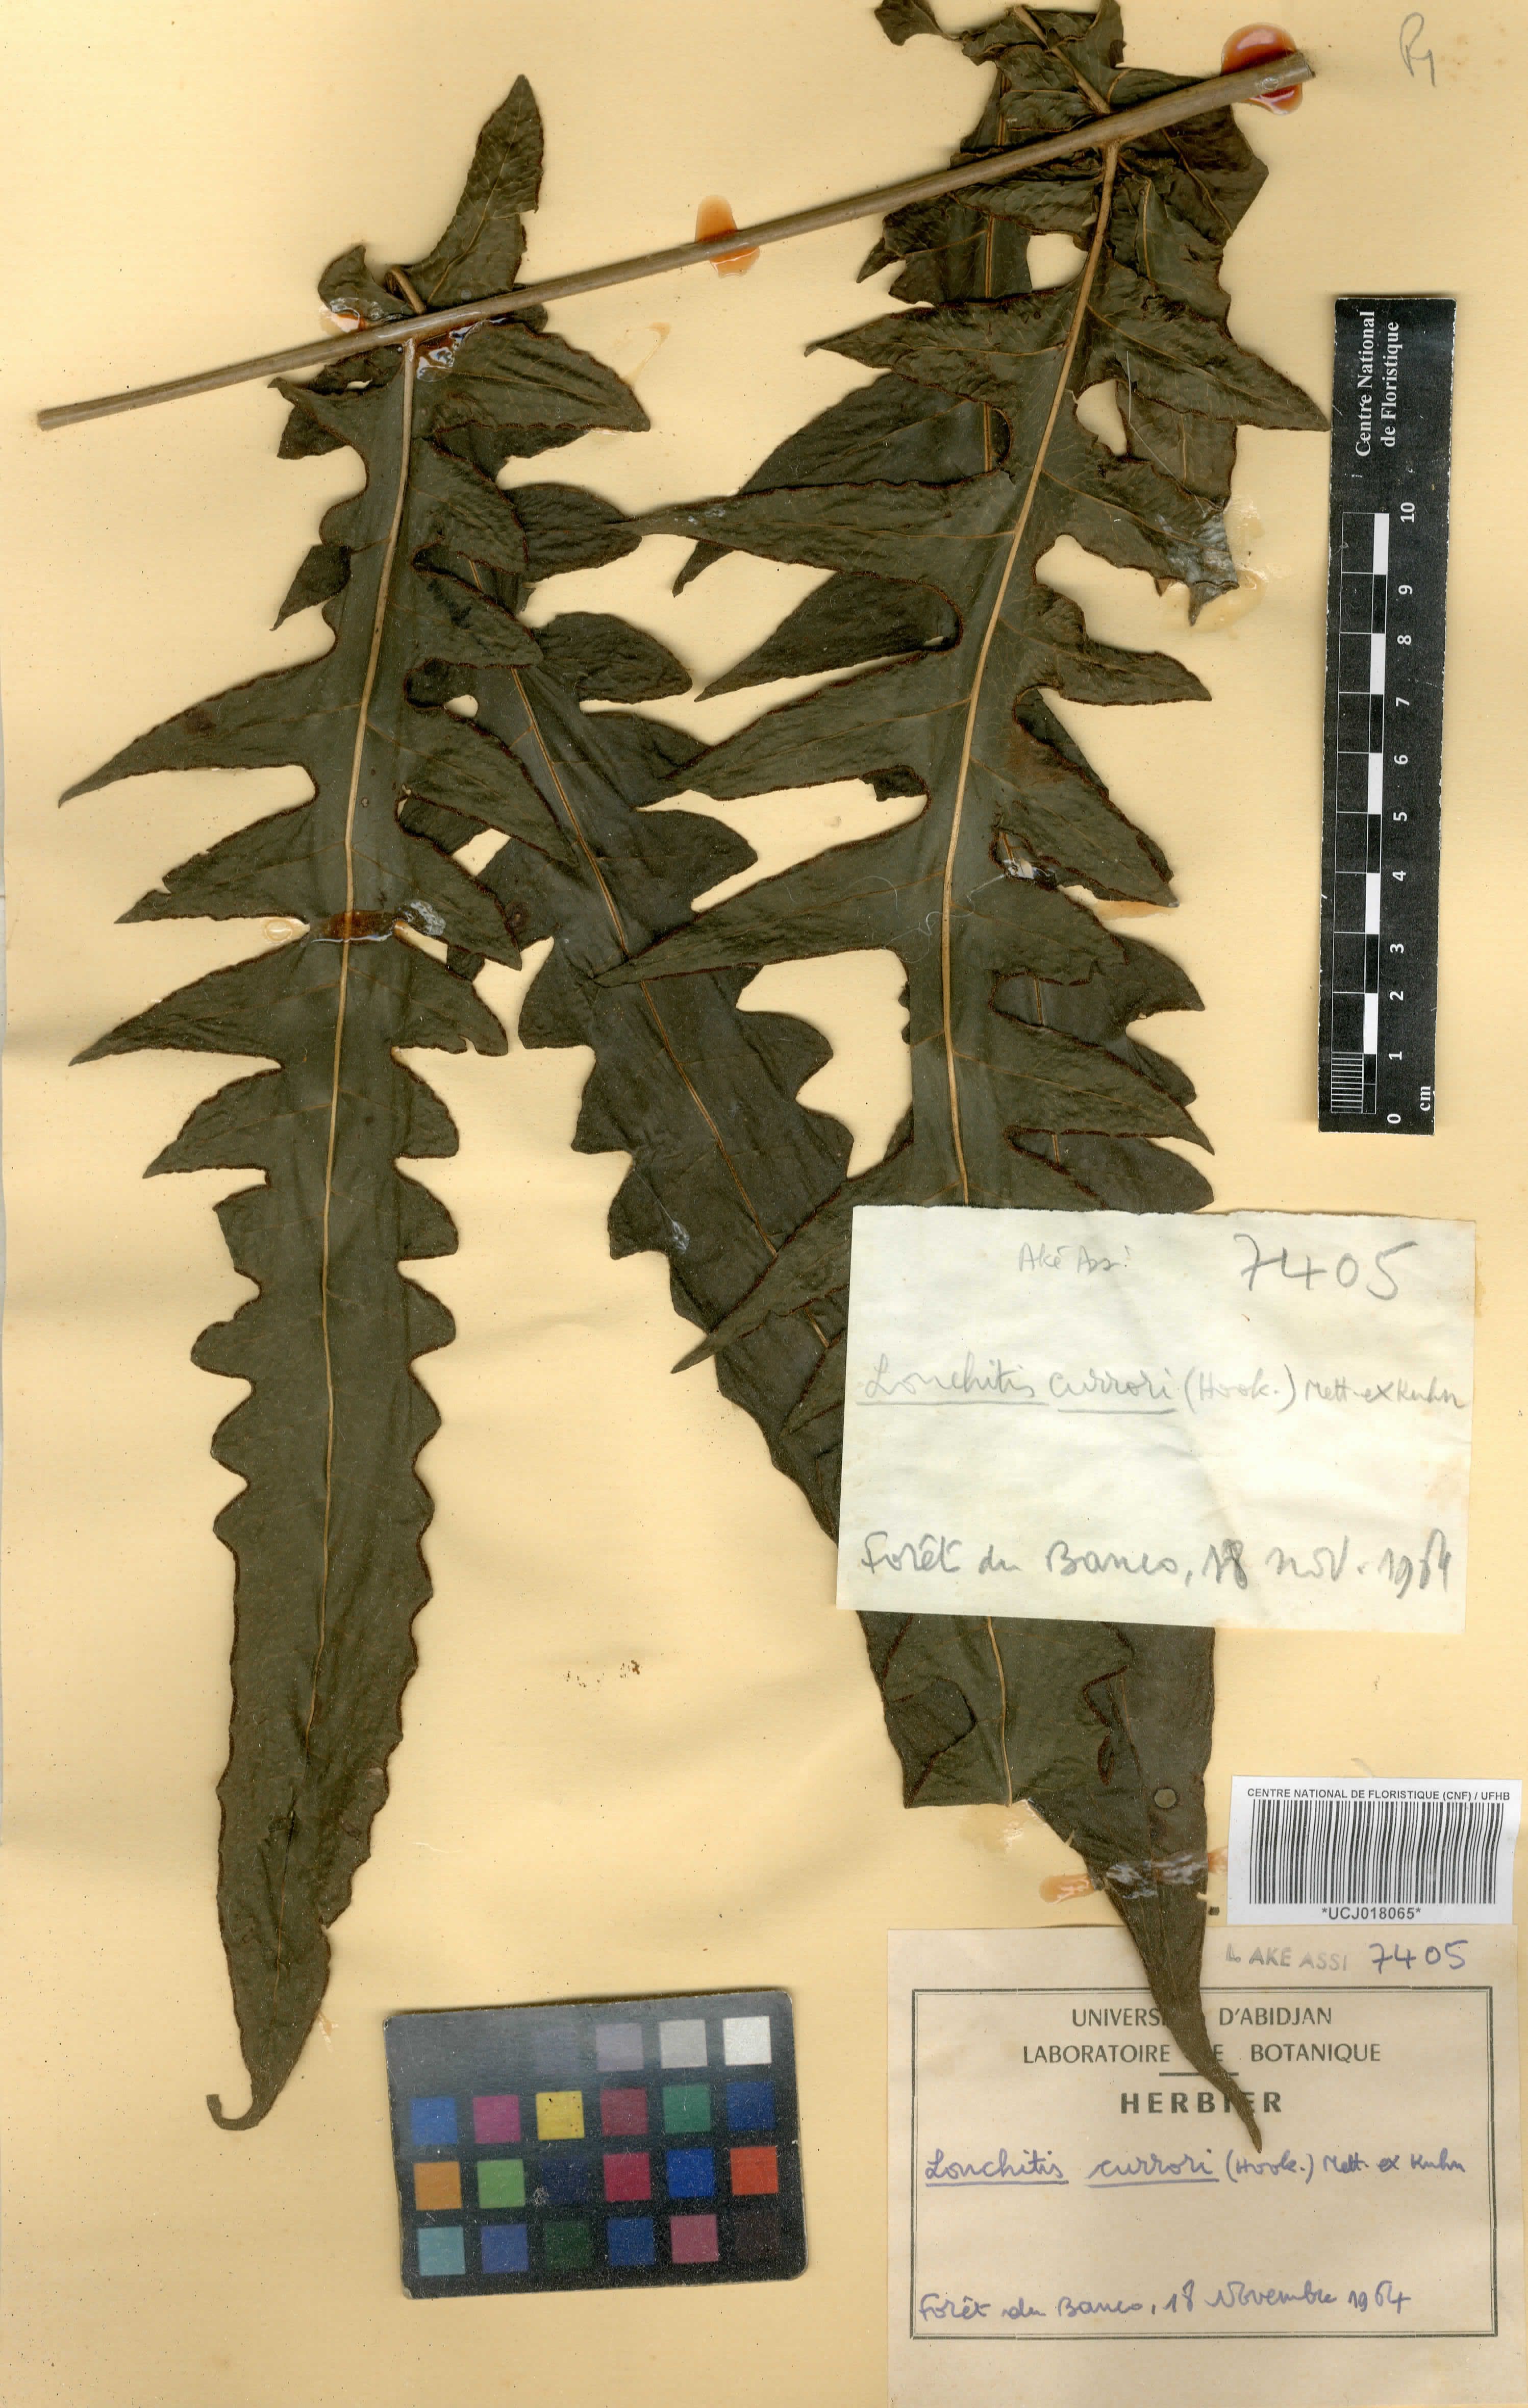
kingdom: Plantae
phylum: Tracheophyta
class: Polypodiopsida
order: Polypodiales
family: Dennstaedtiaceae
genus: Blotiella
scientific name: Blotiella currorii
